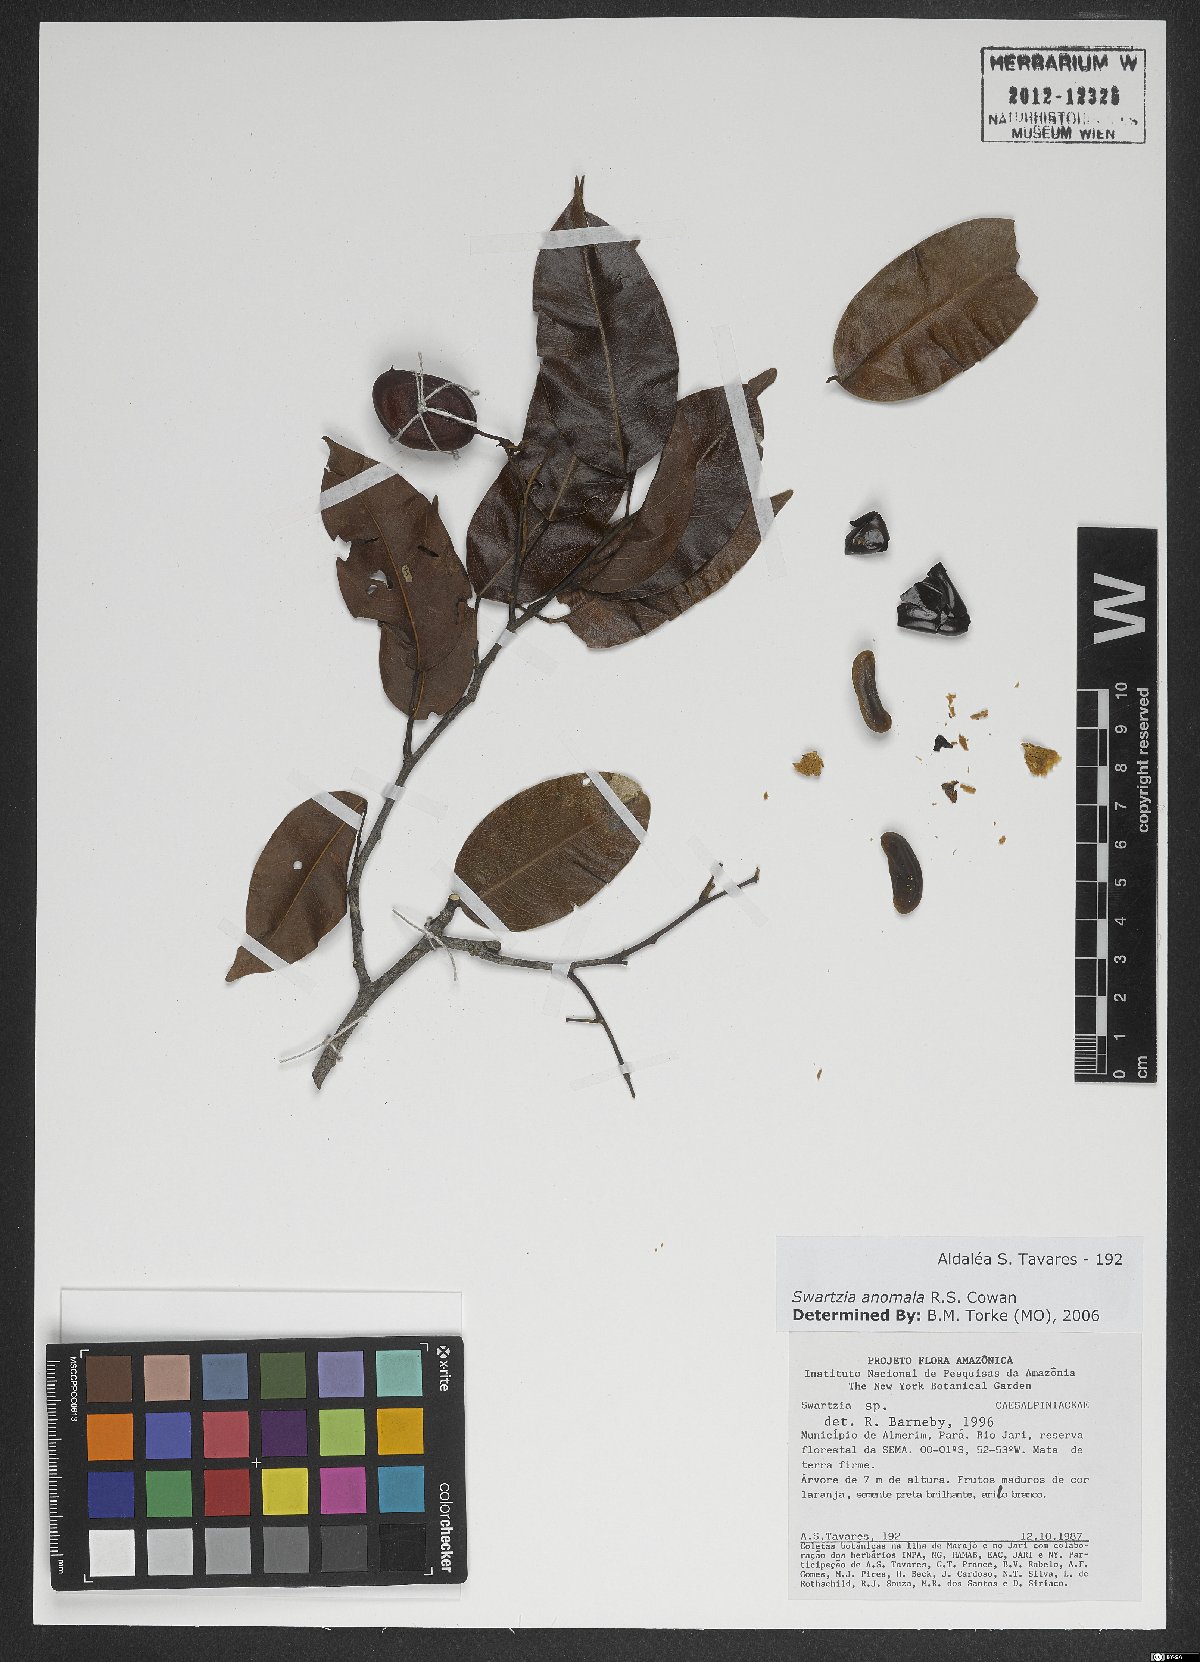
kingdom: Plantae
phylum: Tracheophyta
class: Magnoliopsida
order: Fabales
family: Fabaceae
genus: Swartzia
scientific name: Swartzia anomala
